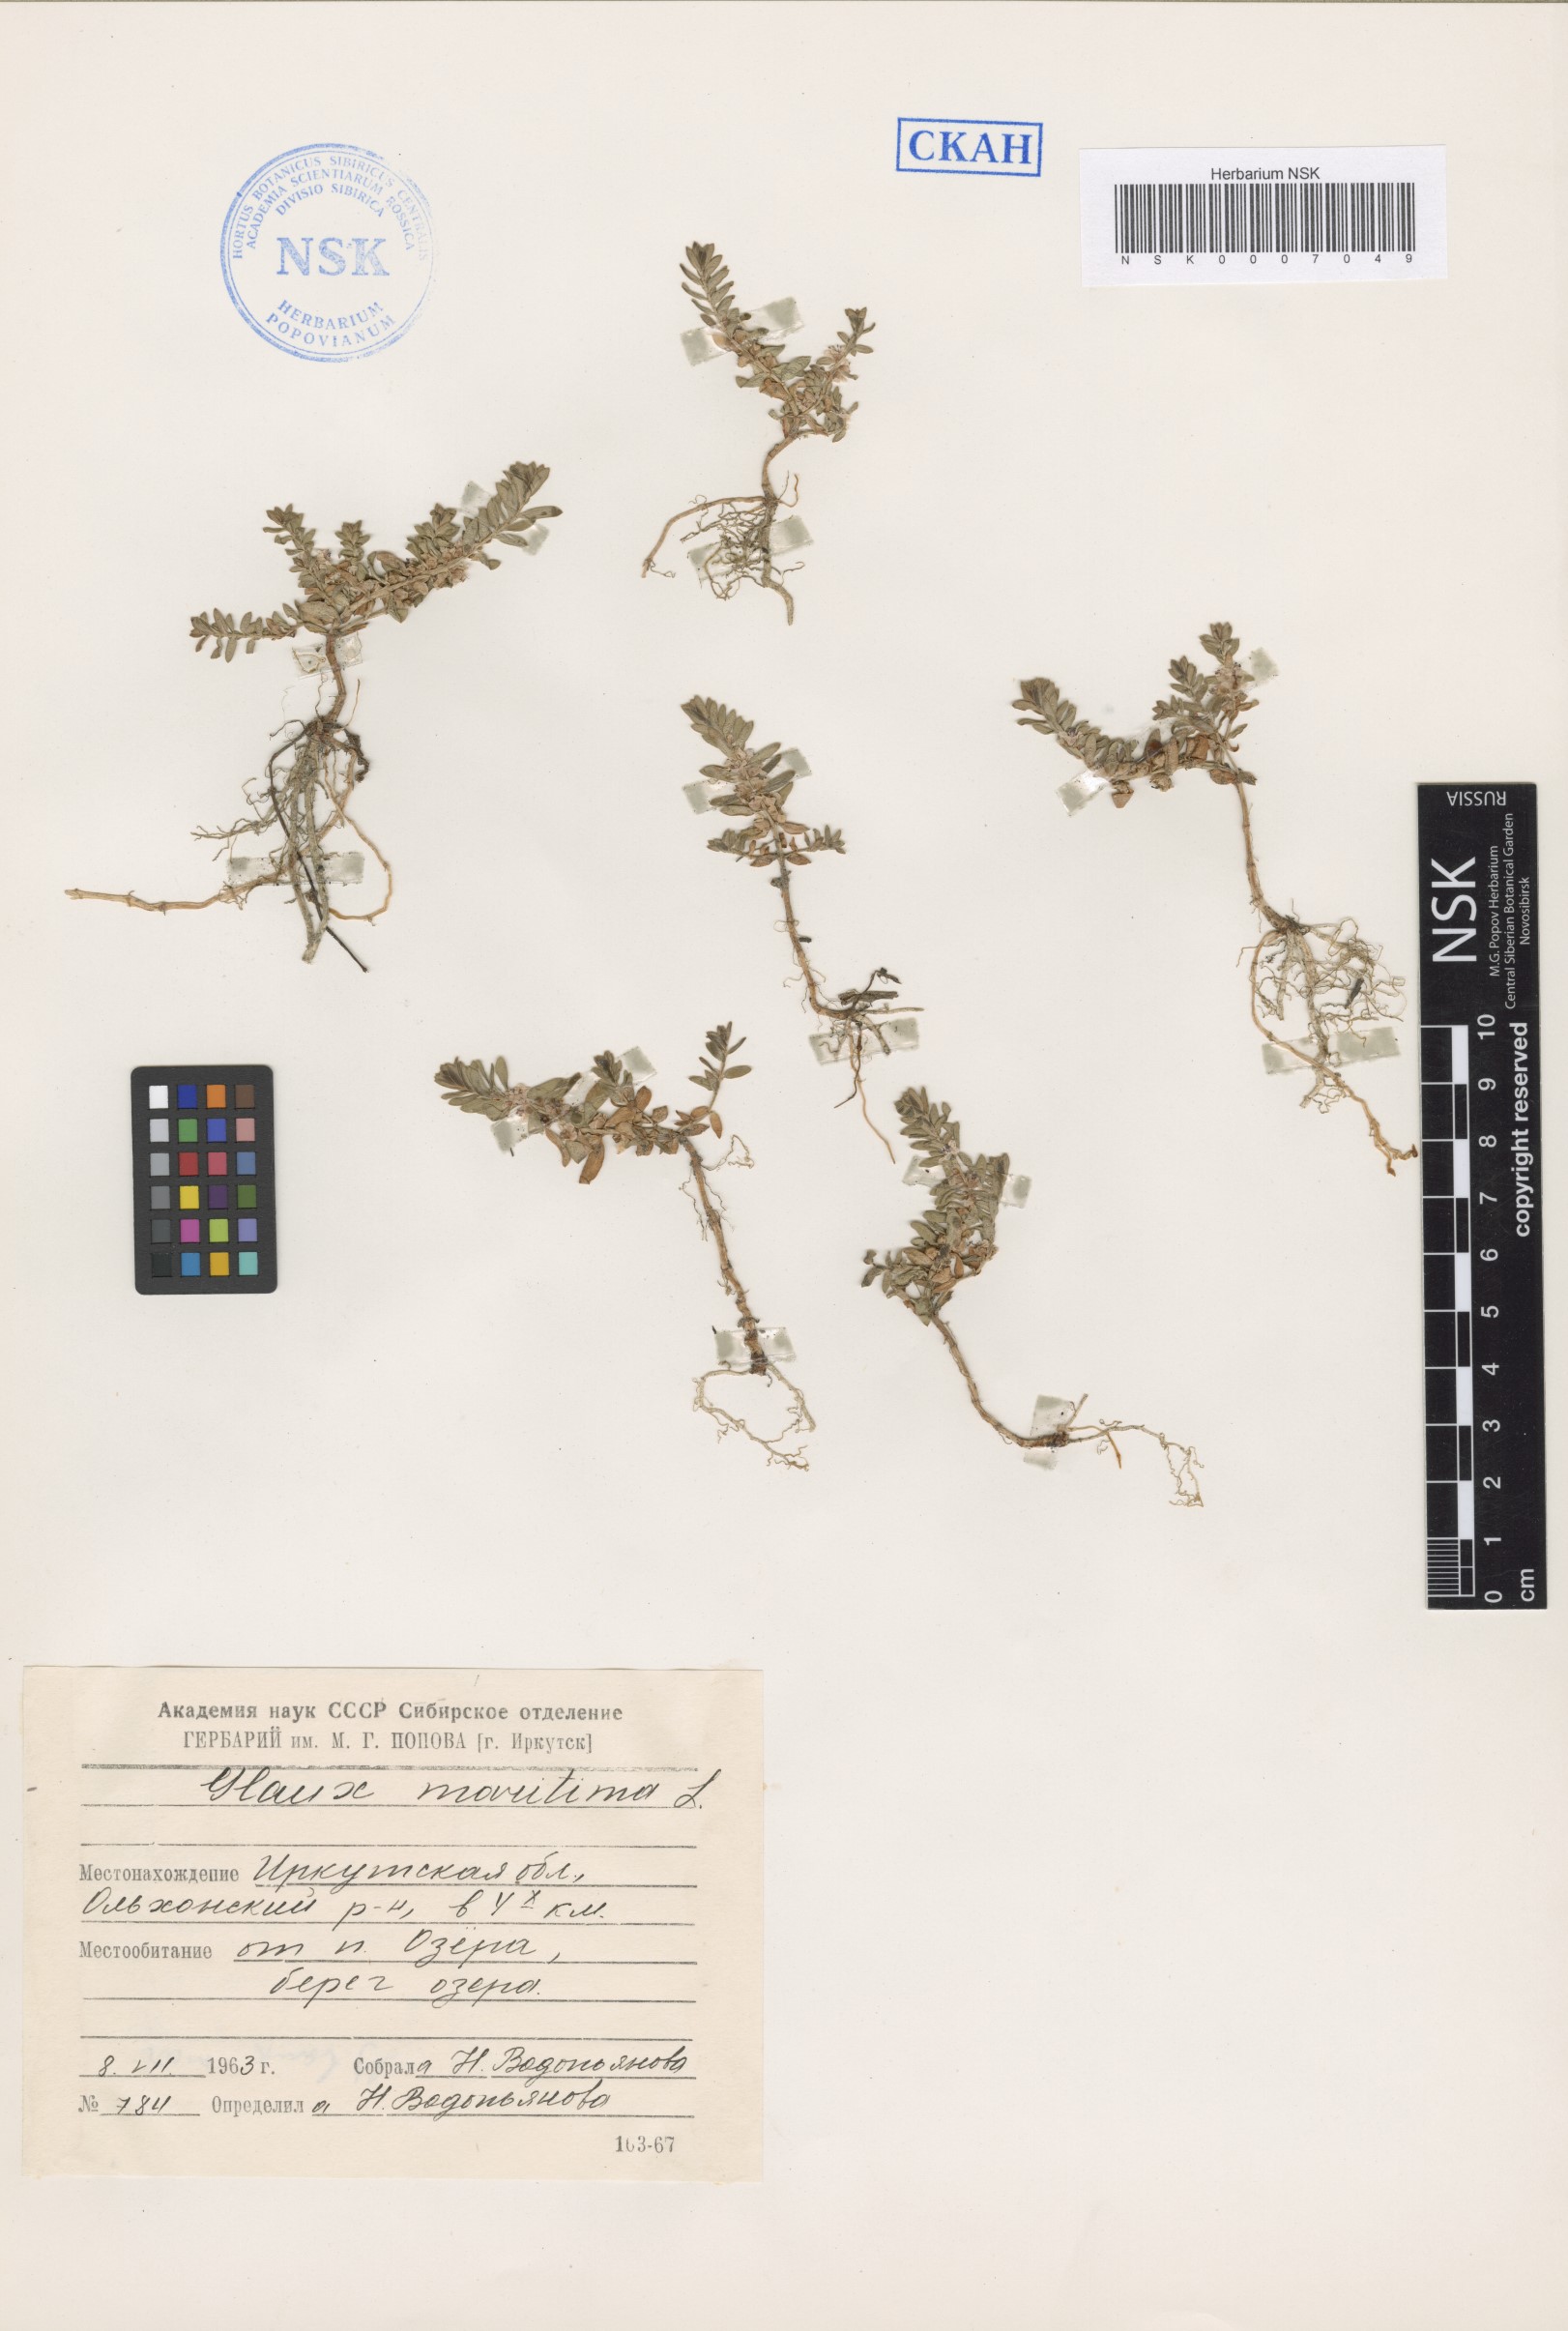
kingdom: Plantae
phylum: Tracheophyta
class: Magnoliopsida
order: Ericales
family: Primulaceae
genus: Lysimachia
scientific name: Lysimachia maritima
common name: Sea milkwort
